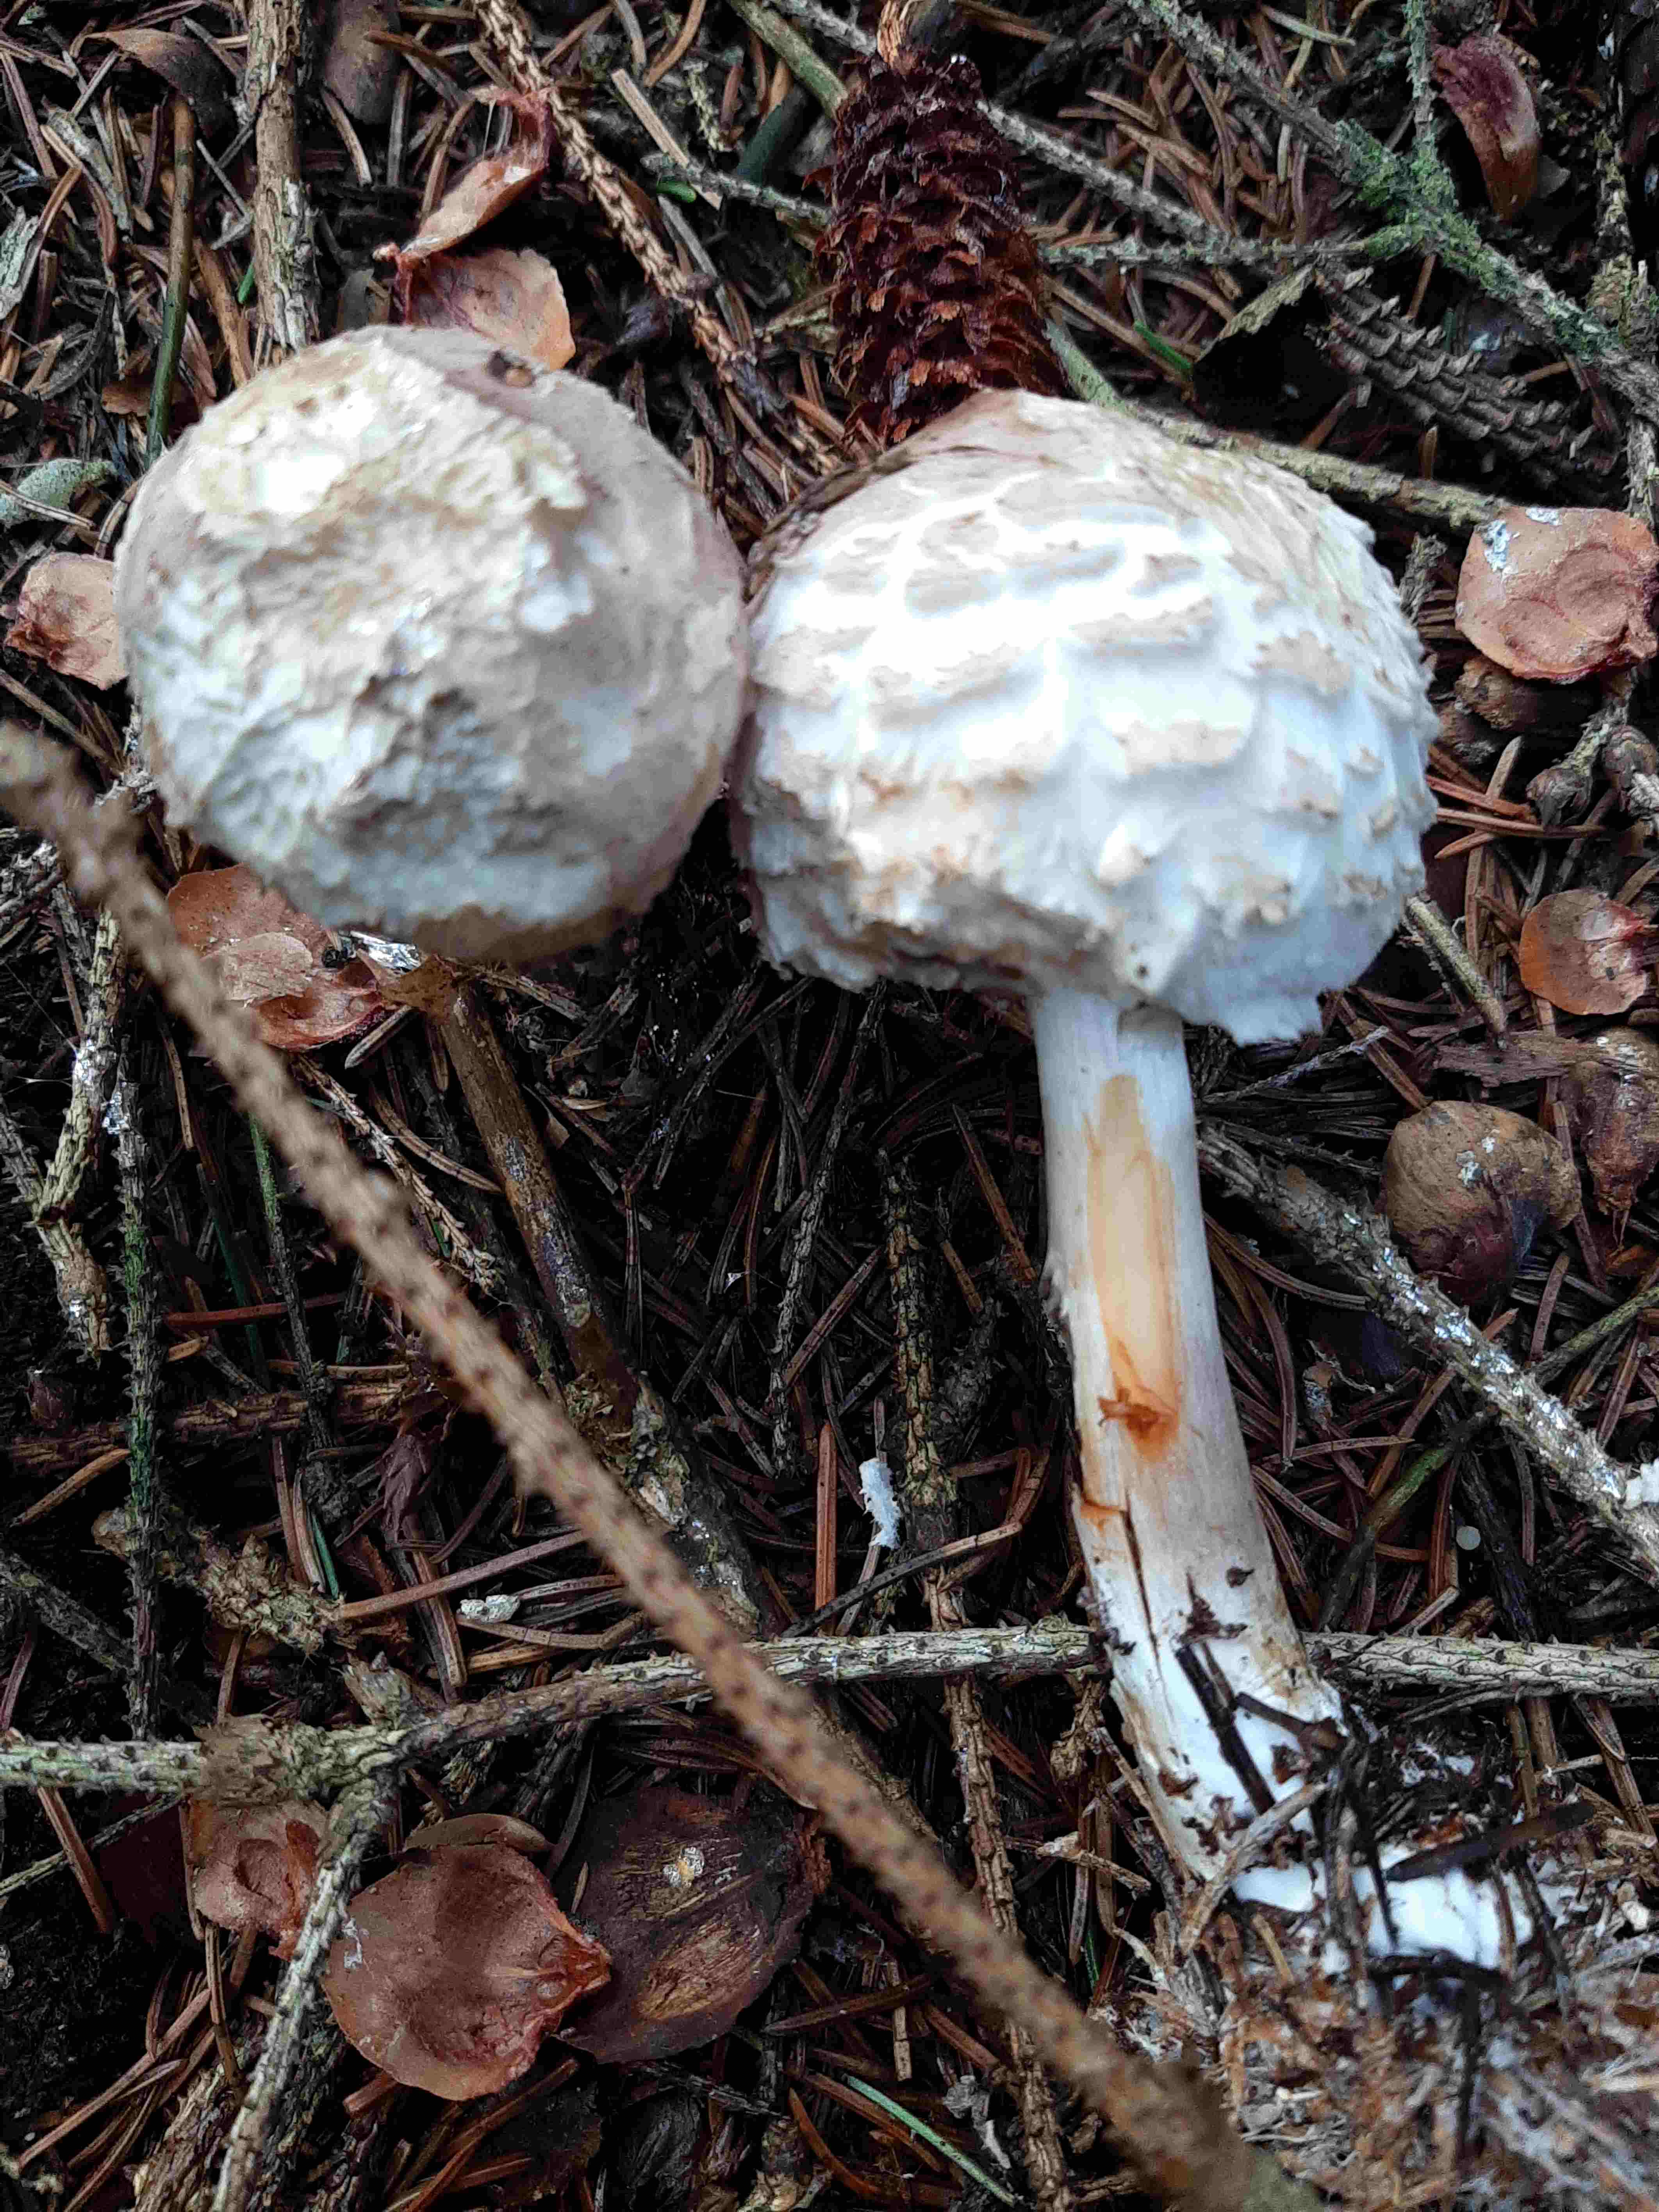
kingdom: Fungi
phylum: Basidiomycota
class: Agaricomycetes
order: Agaricales
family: Agaricaceae
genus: Chlorophyllum
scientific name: Chlorophyllum olivieri
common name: almindelig rabarberhat
